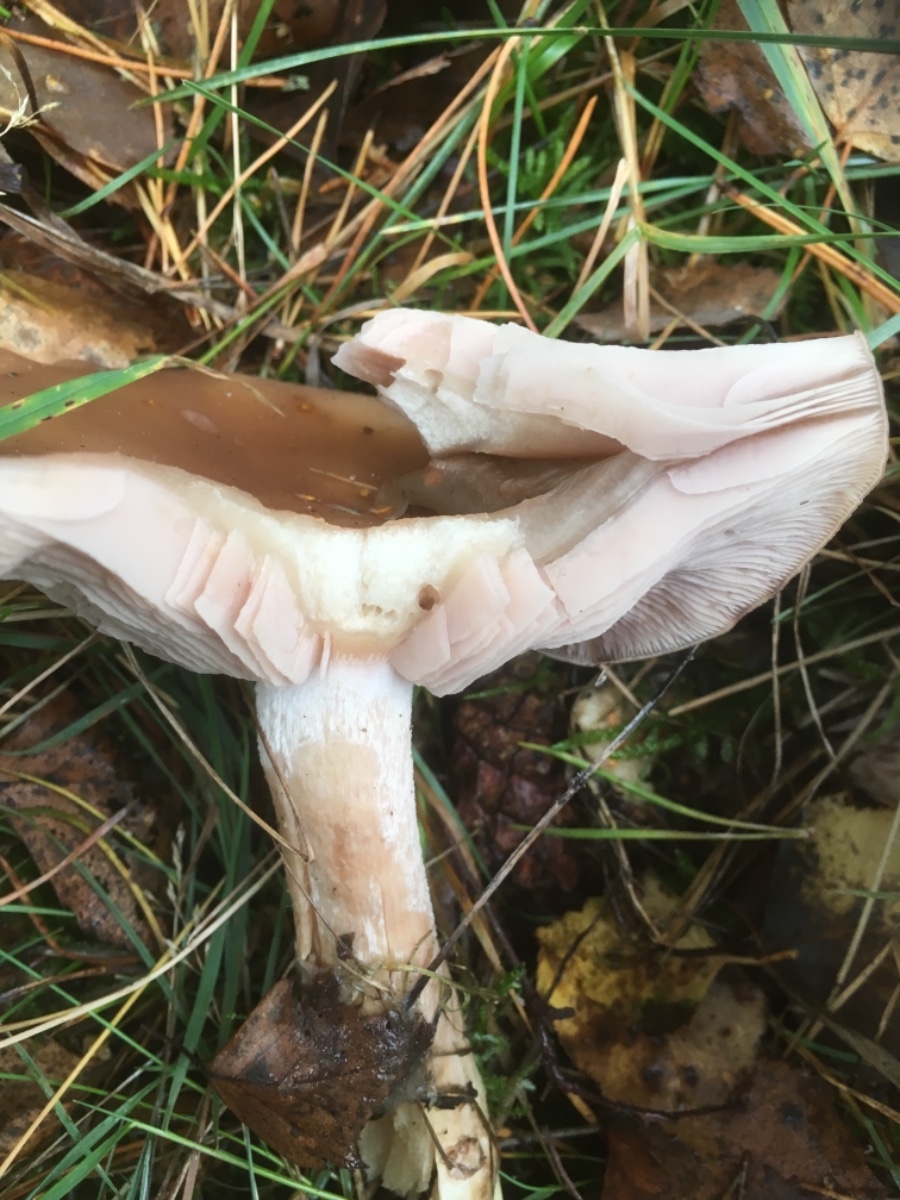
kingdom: Fungi
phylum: Basidiomycota
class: Agaricomycetes
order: Agaricales
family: Tricholomataceae
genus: Lepista
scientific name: Lepista nuda
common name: violet hekseringshat
